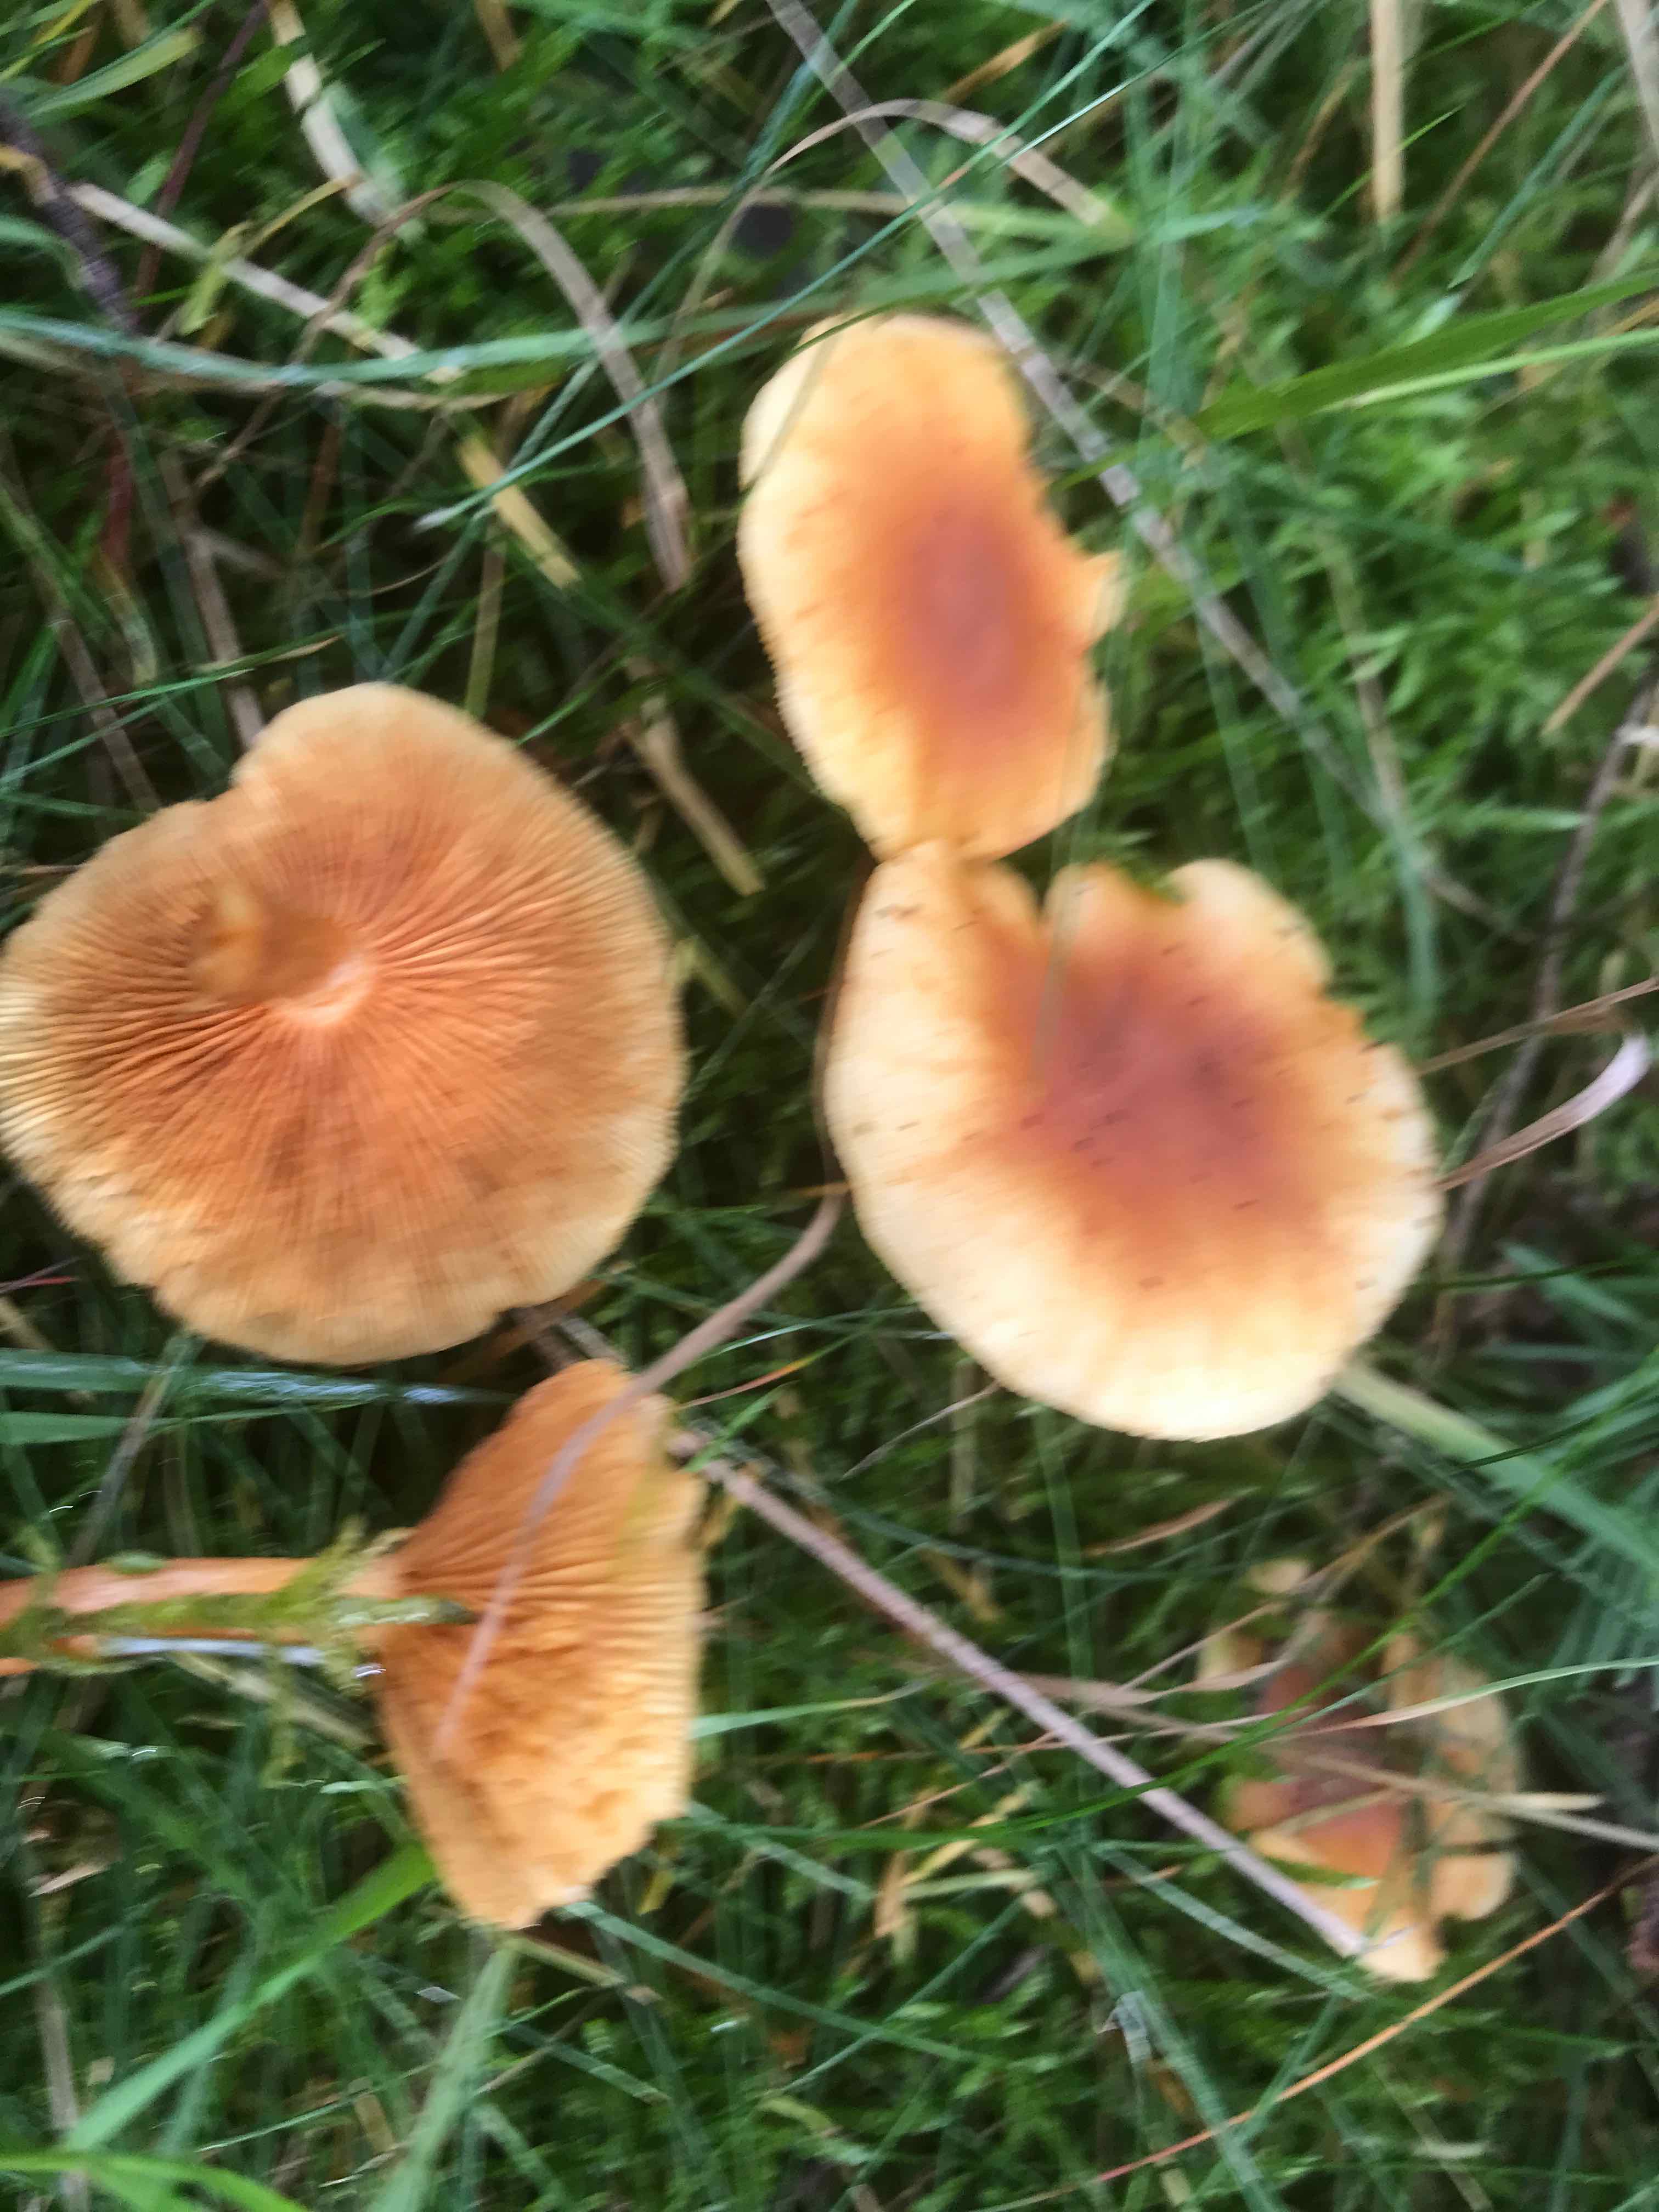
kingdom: Fungi
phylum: Basidiomycota
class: Agaricomycetes
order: Agaricales
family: Hymenogastraceae
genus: Gymnopilus
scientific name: Gymnopilus penetrans
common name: plettet flammehat
